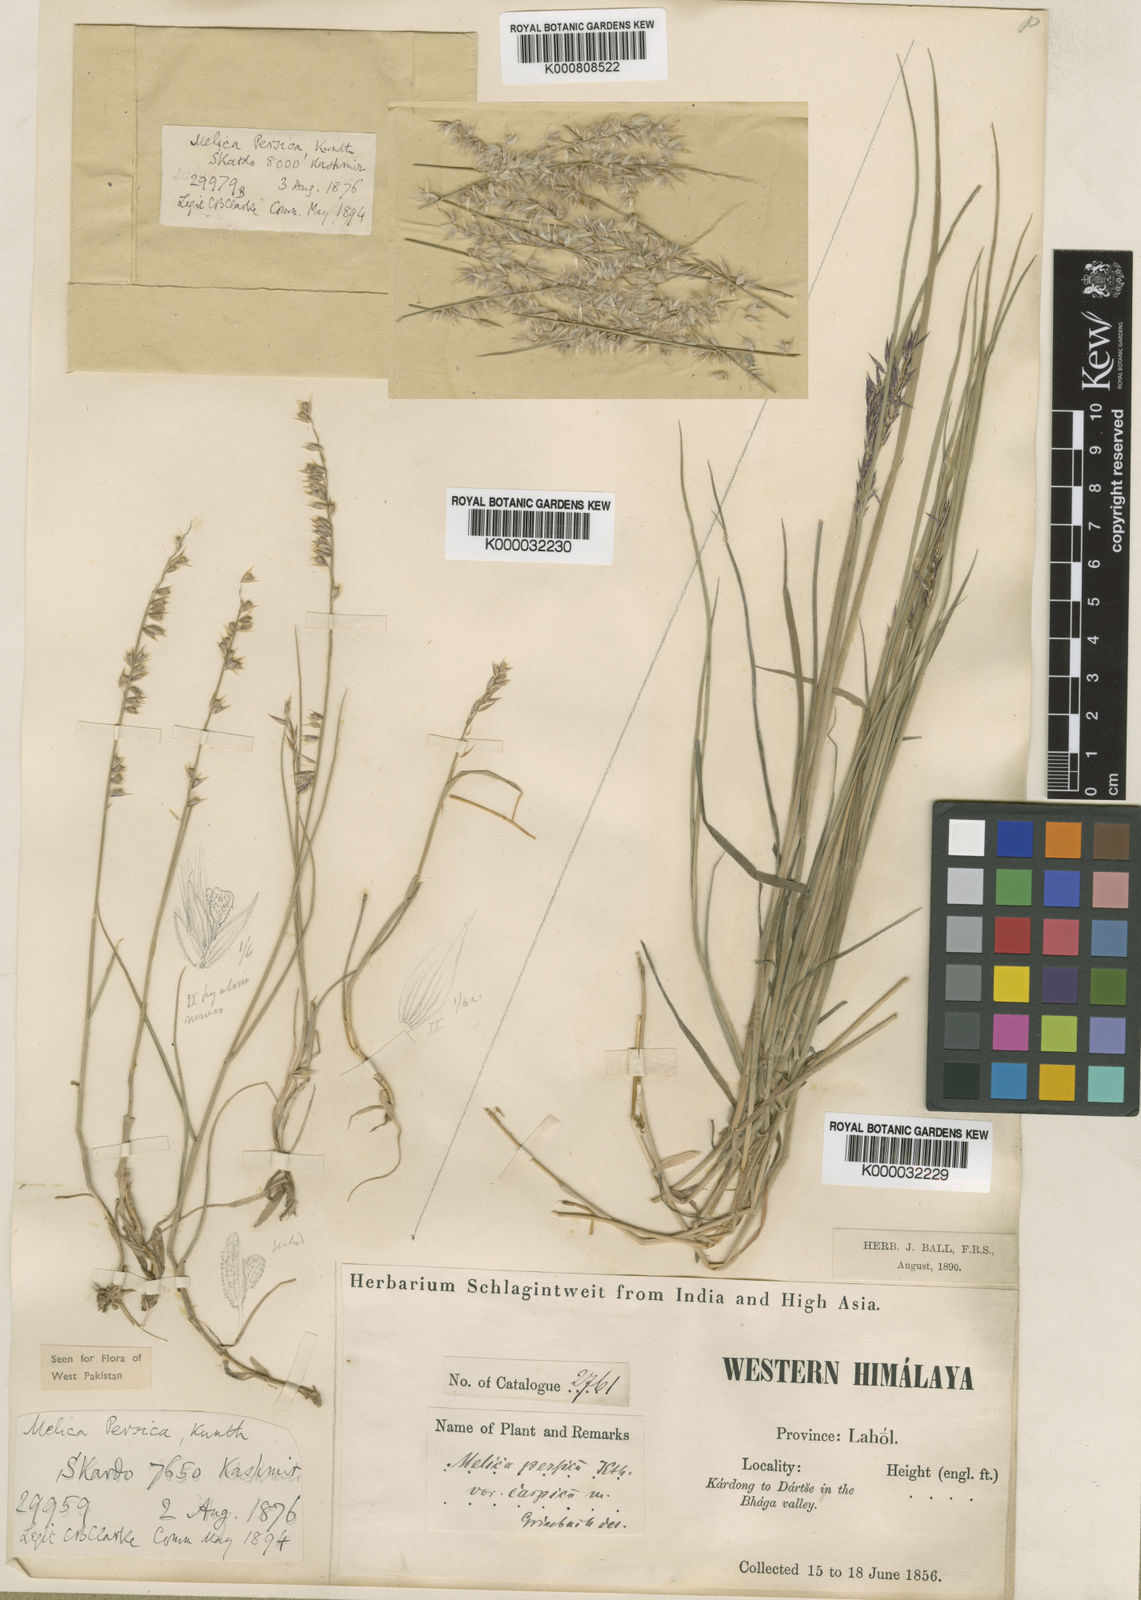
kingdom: Plantae
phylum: Tracheophyta
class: Liliopsida
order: Poales
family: Poaceae
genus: Melica
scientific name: Melica persica
